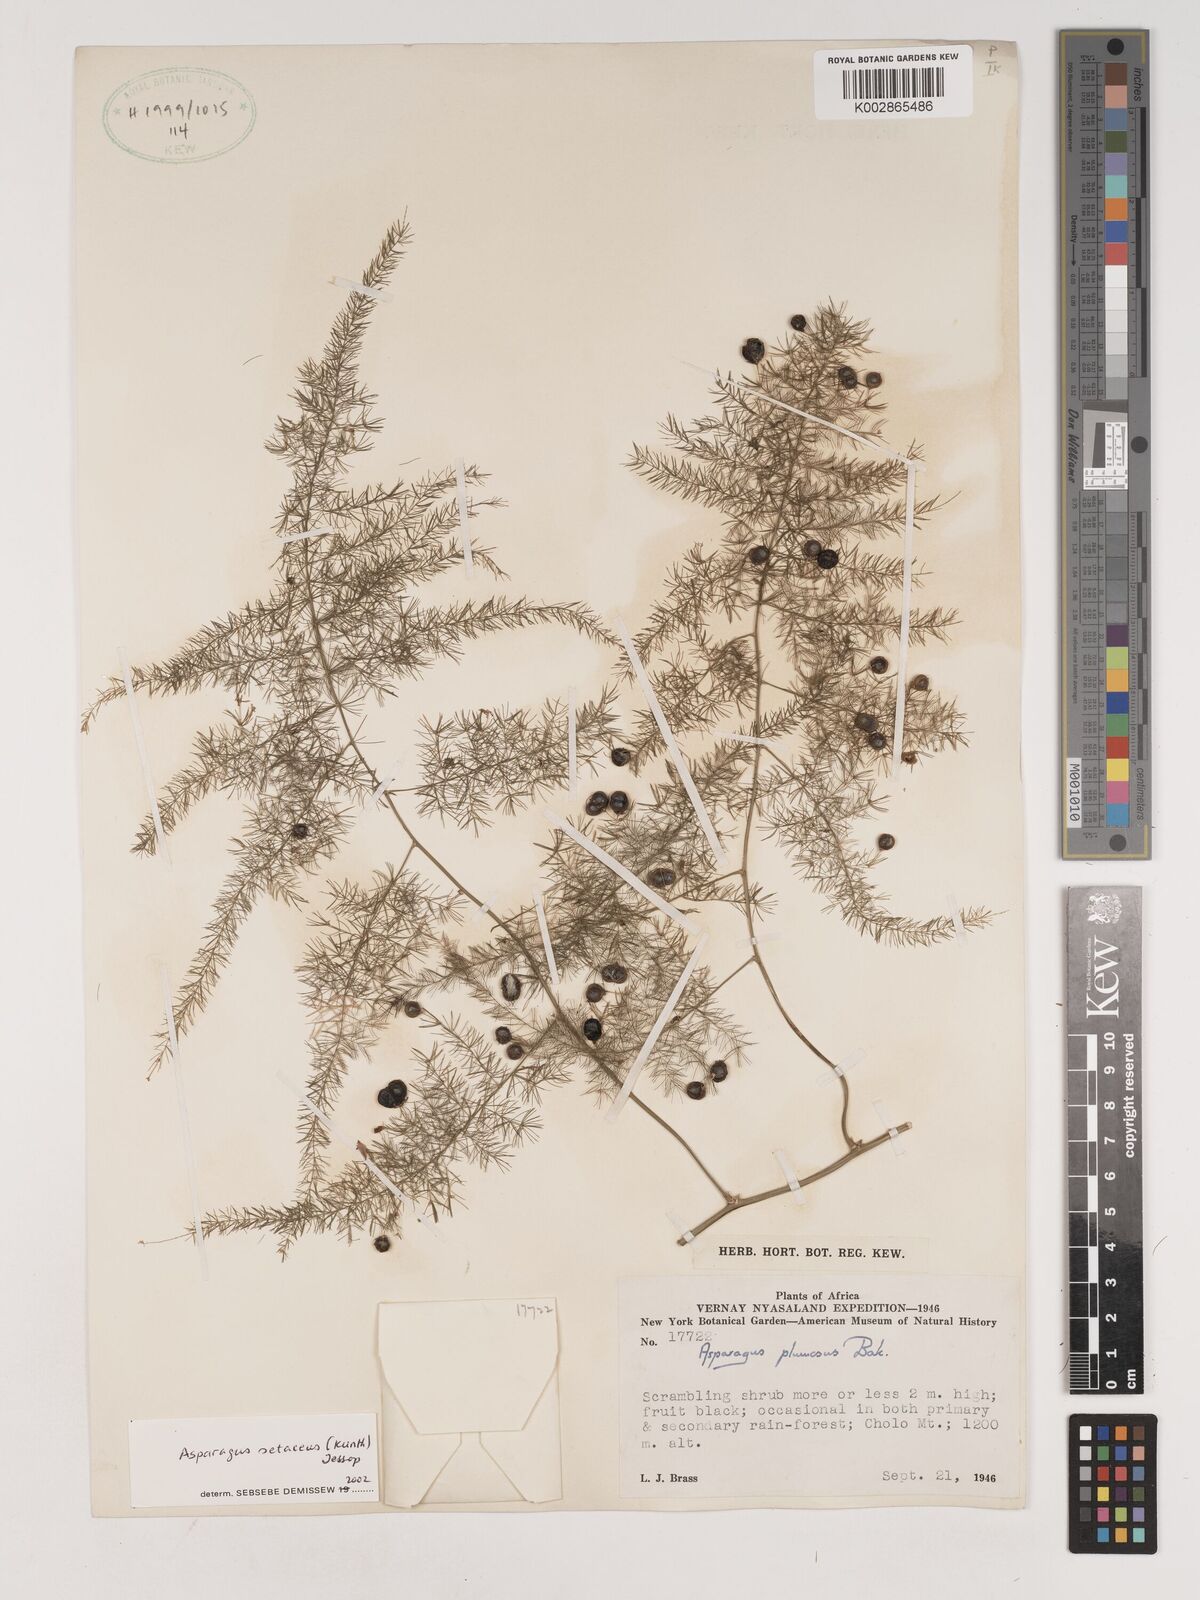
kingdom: Plantae
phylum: Tracheophyta
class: Liliopsida
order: Asparagales
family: Asparagaceae
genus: Asparagus
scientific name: Asparagus setaceus
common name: Common asparagus fern
